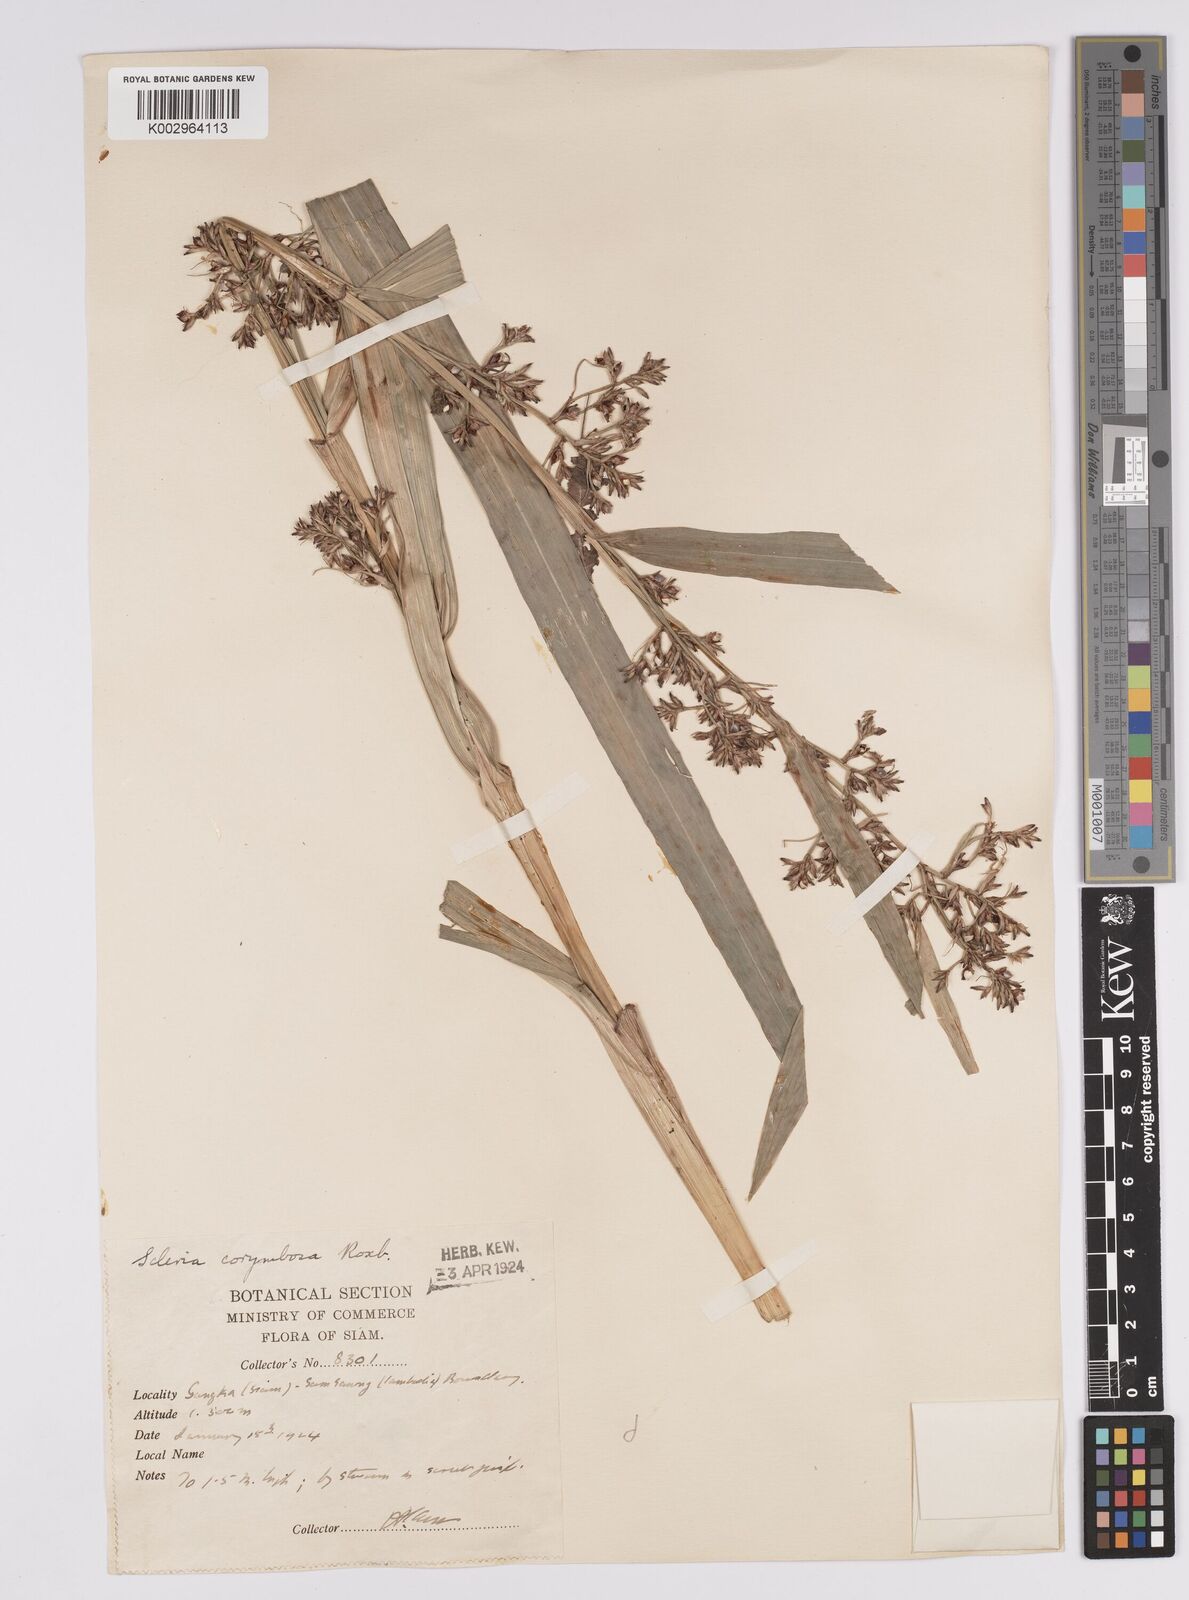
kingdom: Plantae
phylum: Tracheophyta
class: Liliopsida
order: Poales
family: Cyperaceae
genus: Scleria
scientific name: Scleria corymbosa
